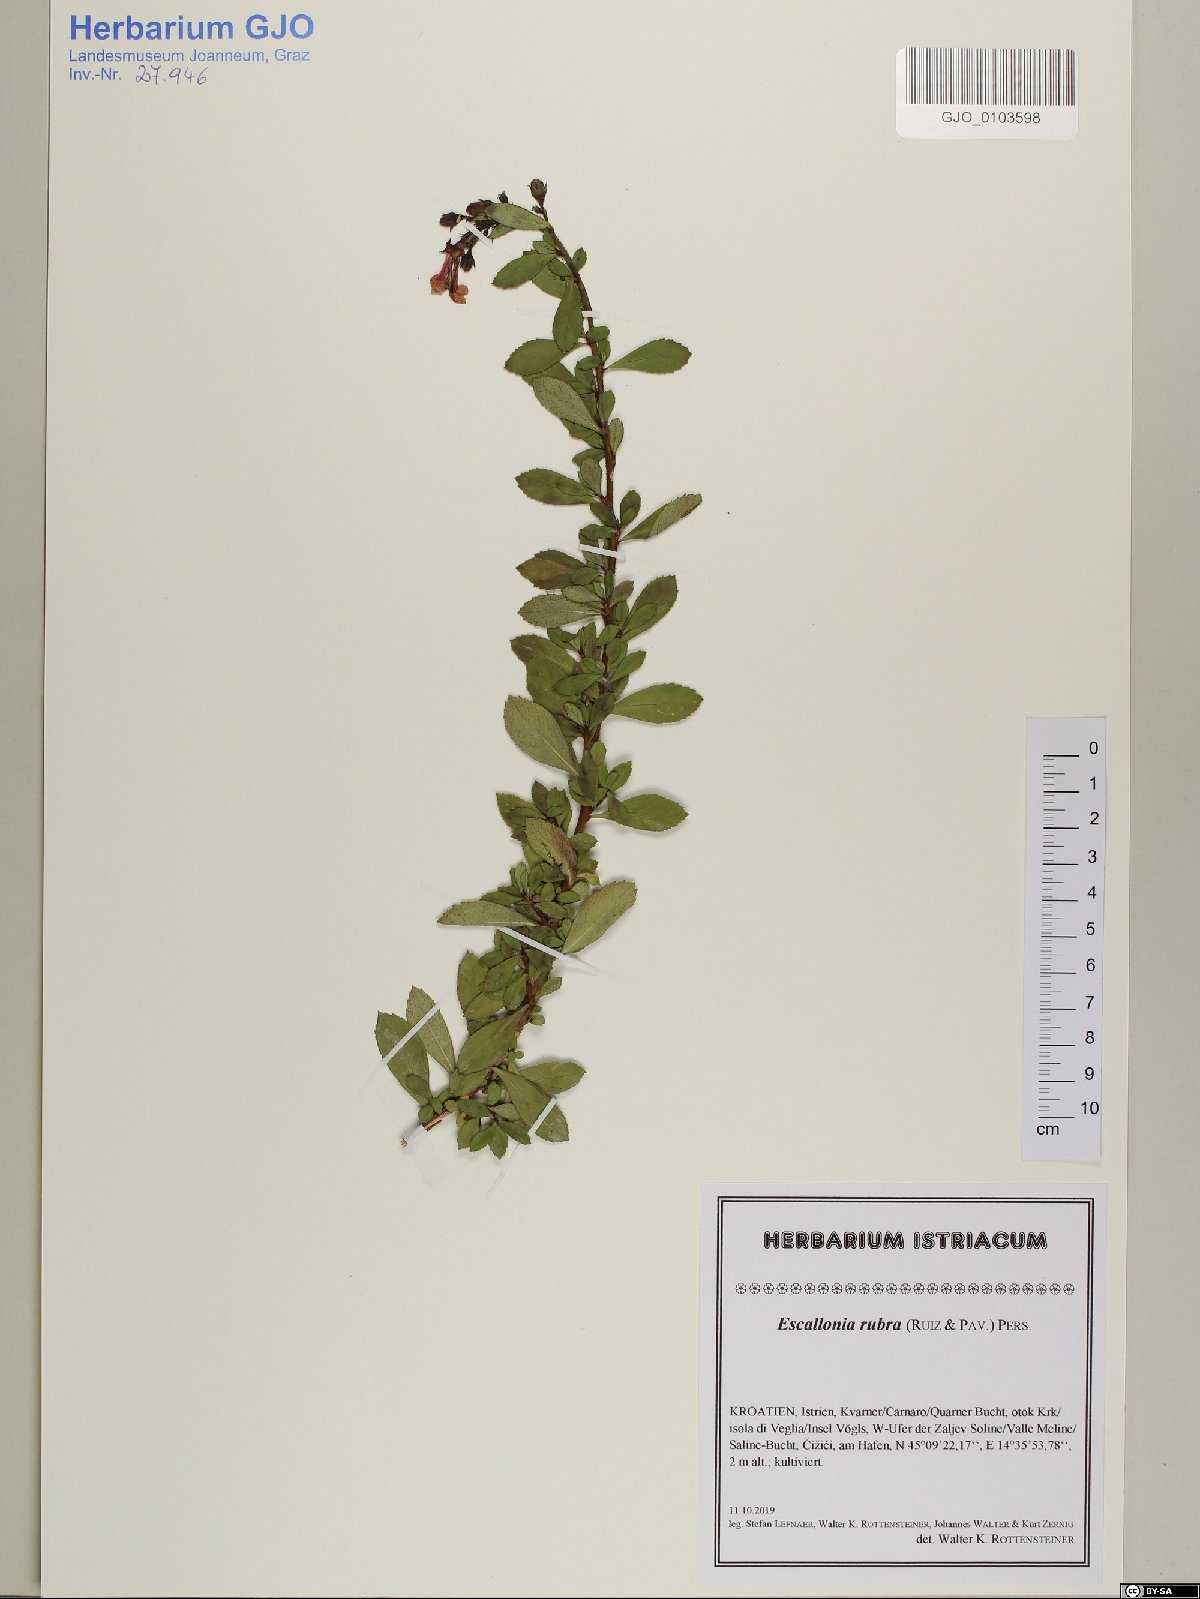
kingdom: Plantae
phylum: Tracheophyta
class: Magnoliopsida
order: Escalloniales
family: Escalloniaceae
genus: Escallonia
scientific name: Escallonia rubra
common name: Redclaws
